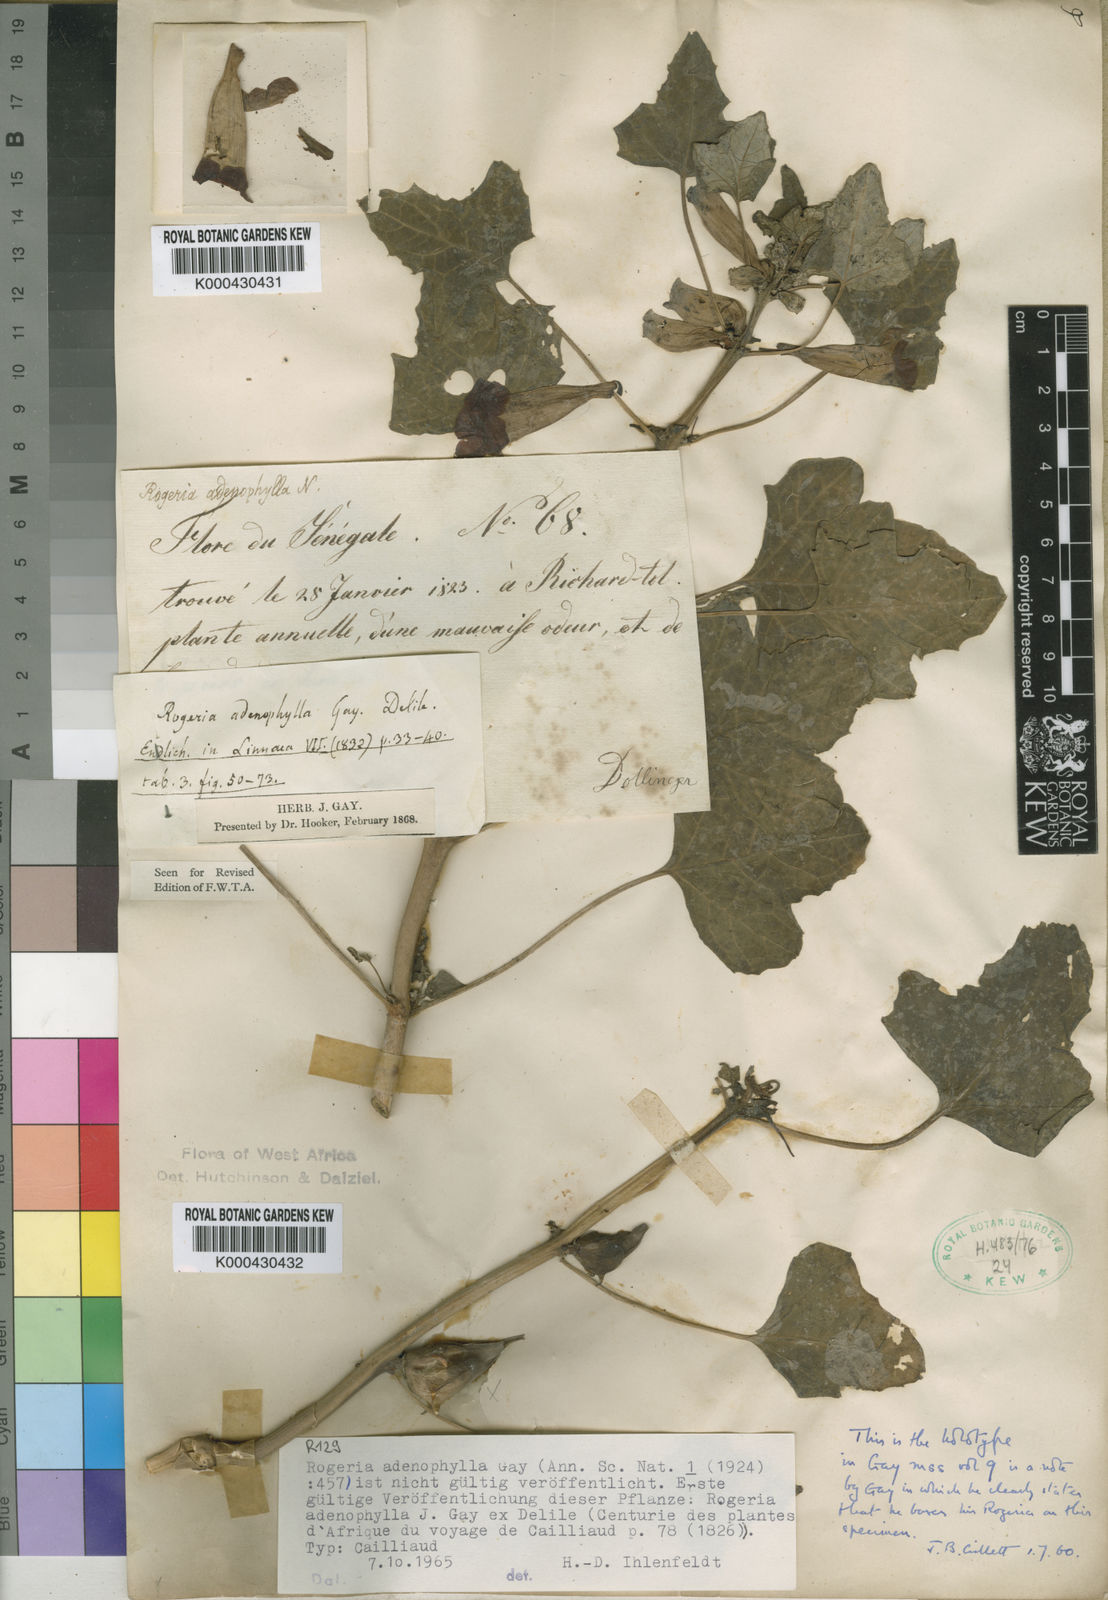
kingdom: Plantae
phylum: Tracheophyta
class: Magnoliopsida
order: Lamiales
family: Pedaliaceae
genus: Rogeria
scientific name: Rogeria adenophylla
